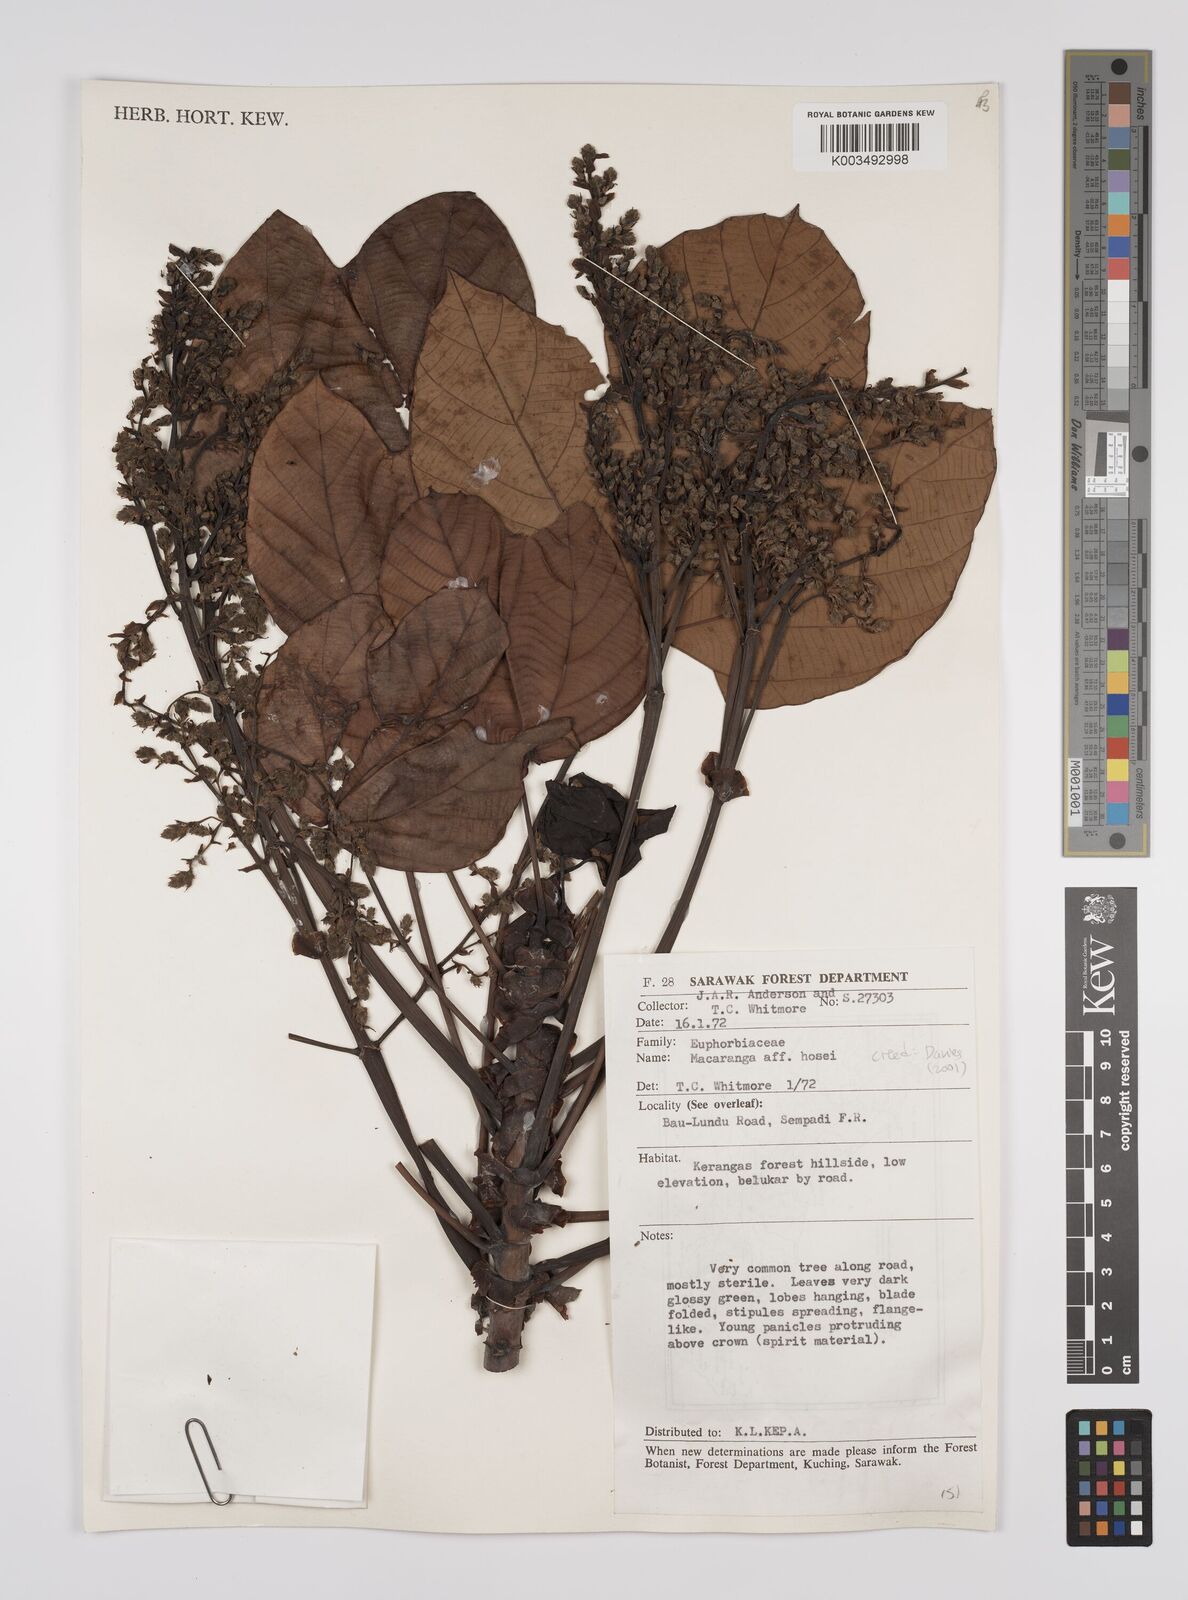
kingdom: Plantae
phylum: Tracheophyta
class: Magnoliopsida
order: Malpighiales
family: Euphorbiaceae
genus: Macaranga
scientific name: Macaranga hosei
